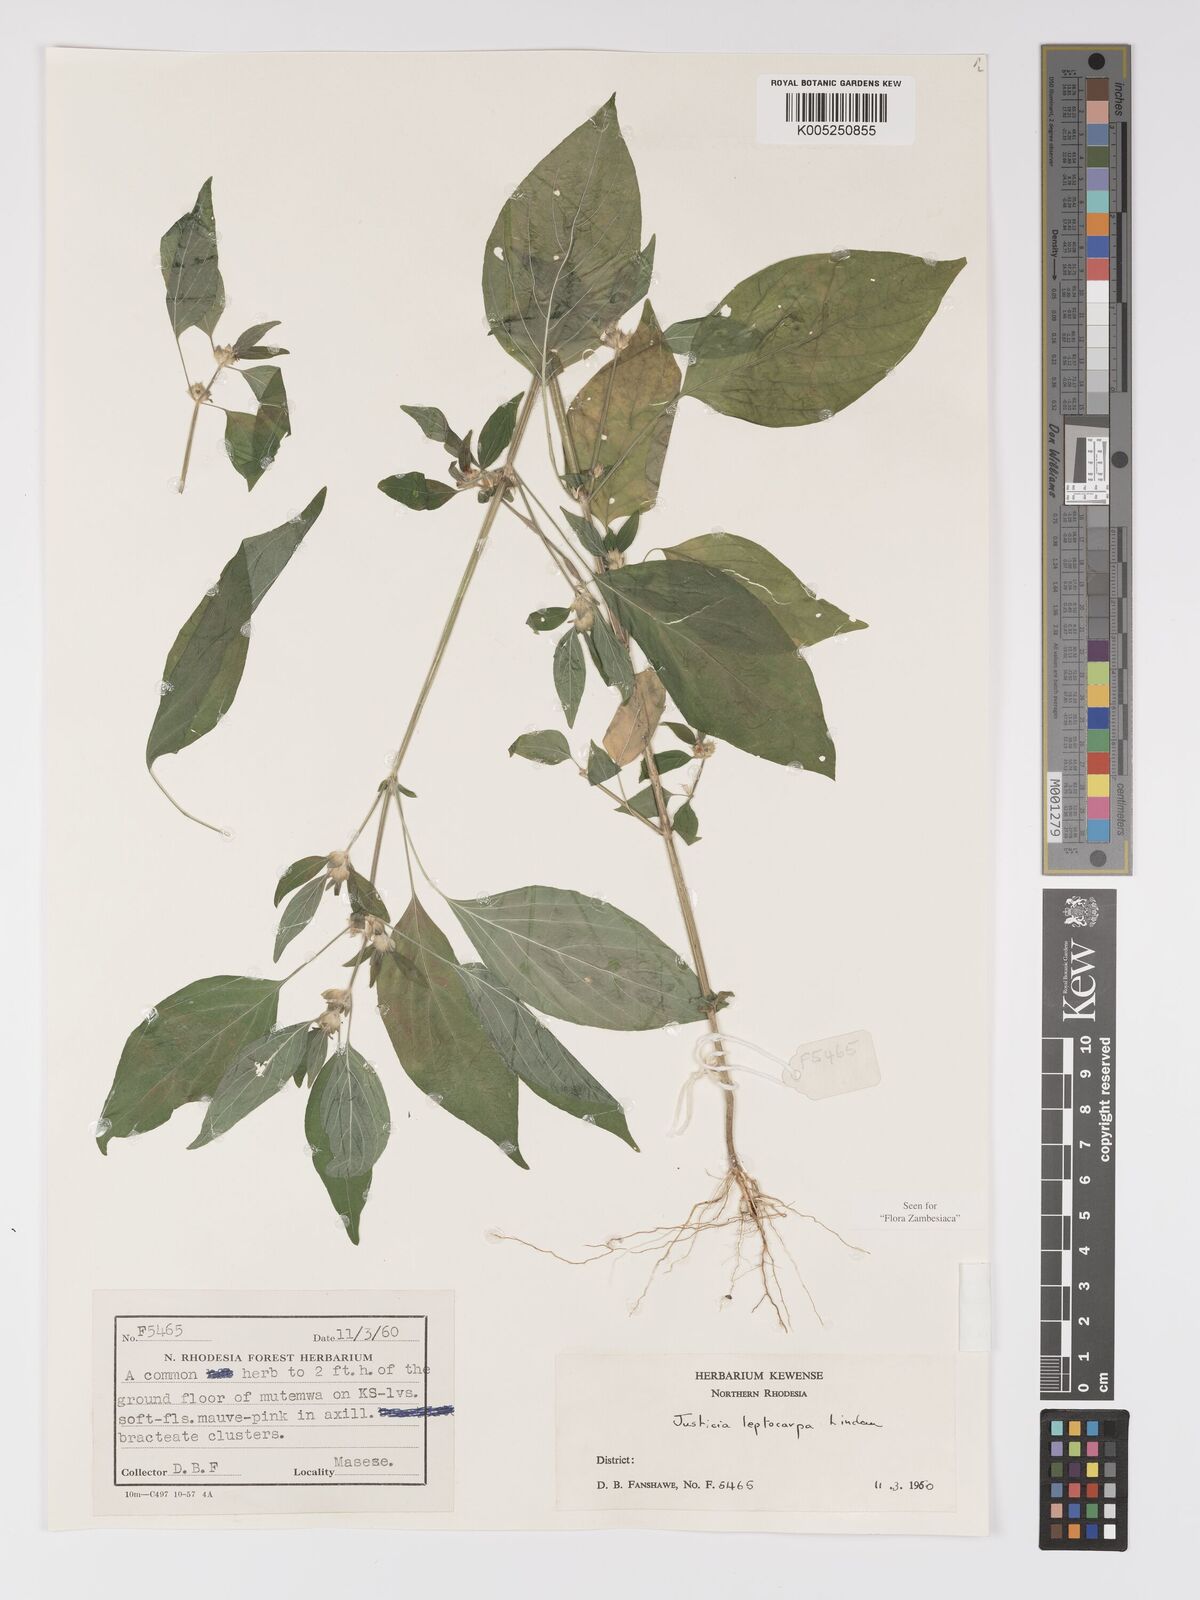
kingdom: Plantae
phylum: Tracheophyta
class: Magnoliopsida
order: Lamiales
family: Acanthaceae
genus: Justicia
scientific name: Justicia heterocarpa
